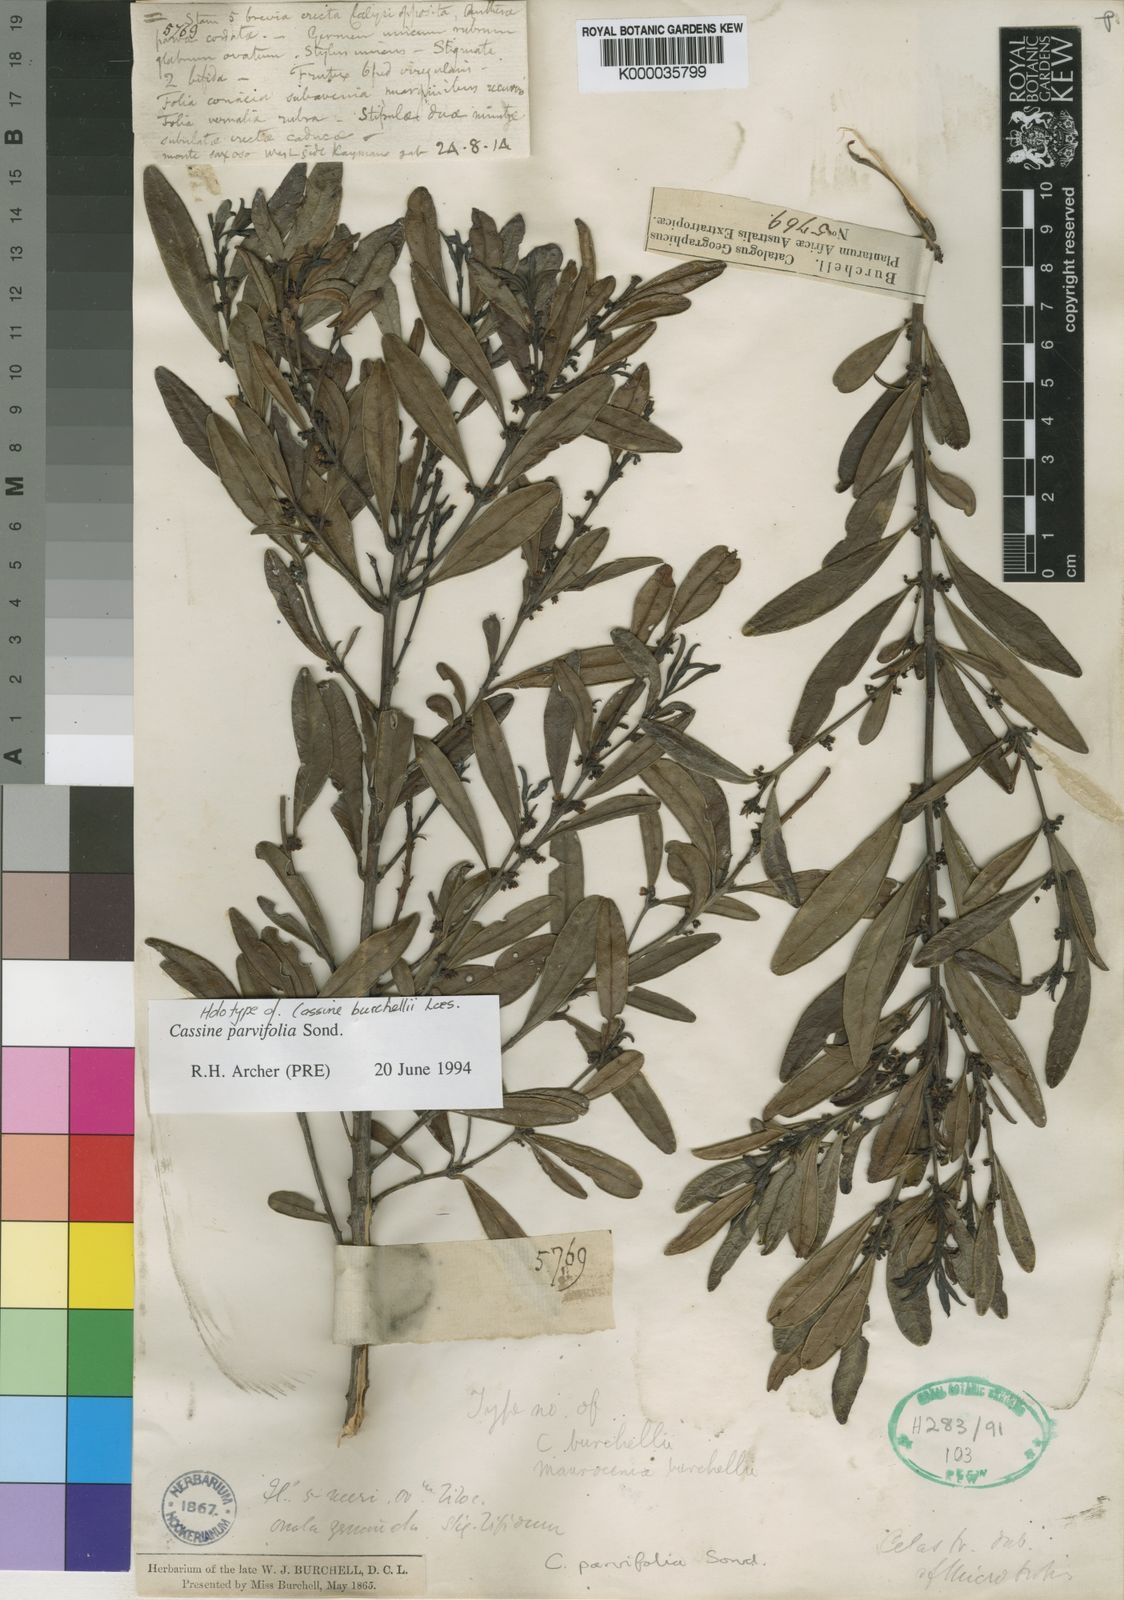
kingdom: Plantae
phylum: Tracheophyta
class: Magnoliopsida
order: Celastrales
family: Celastraceae
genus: Cassine
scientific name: Cassine parvifolia
